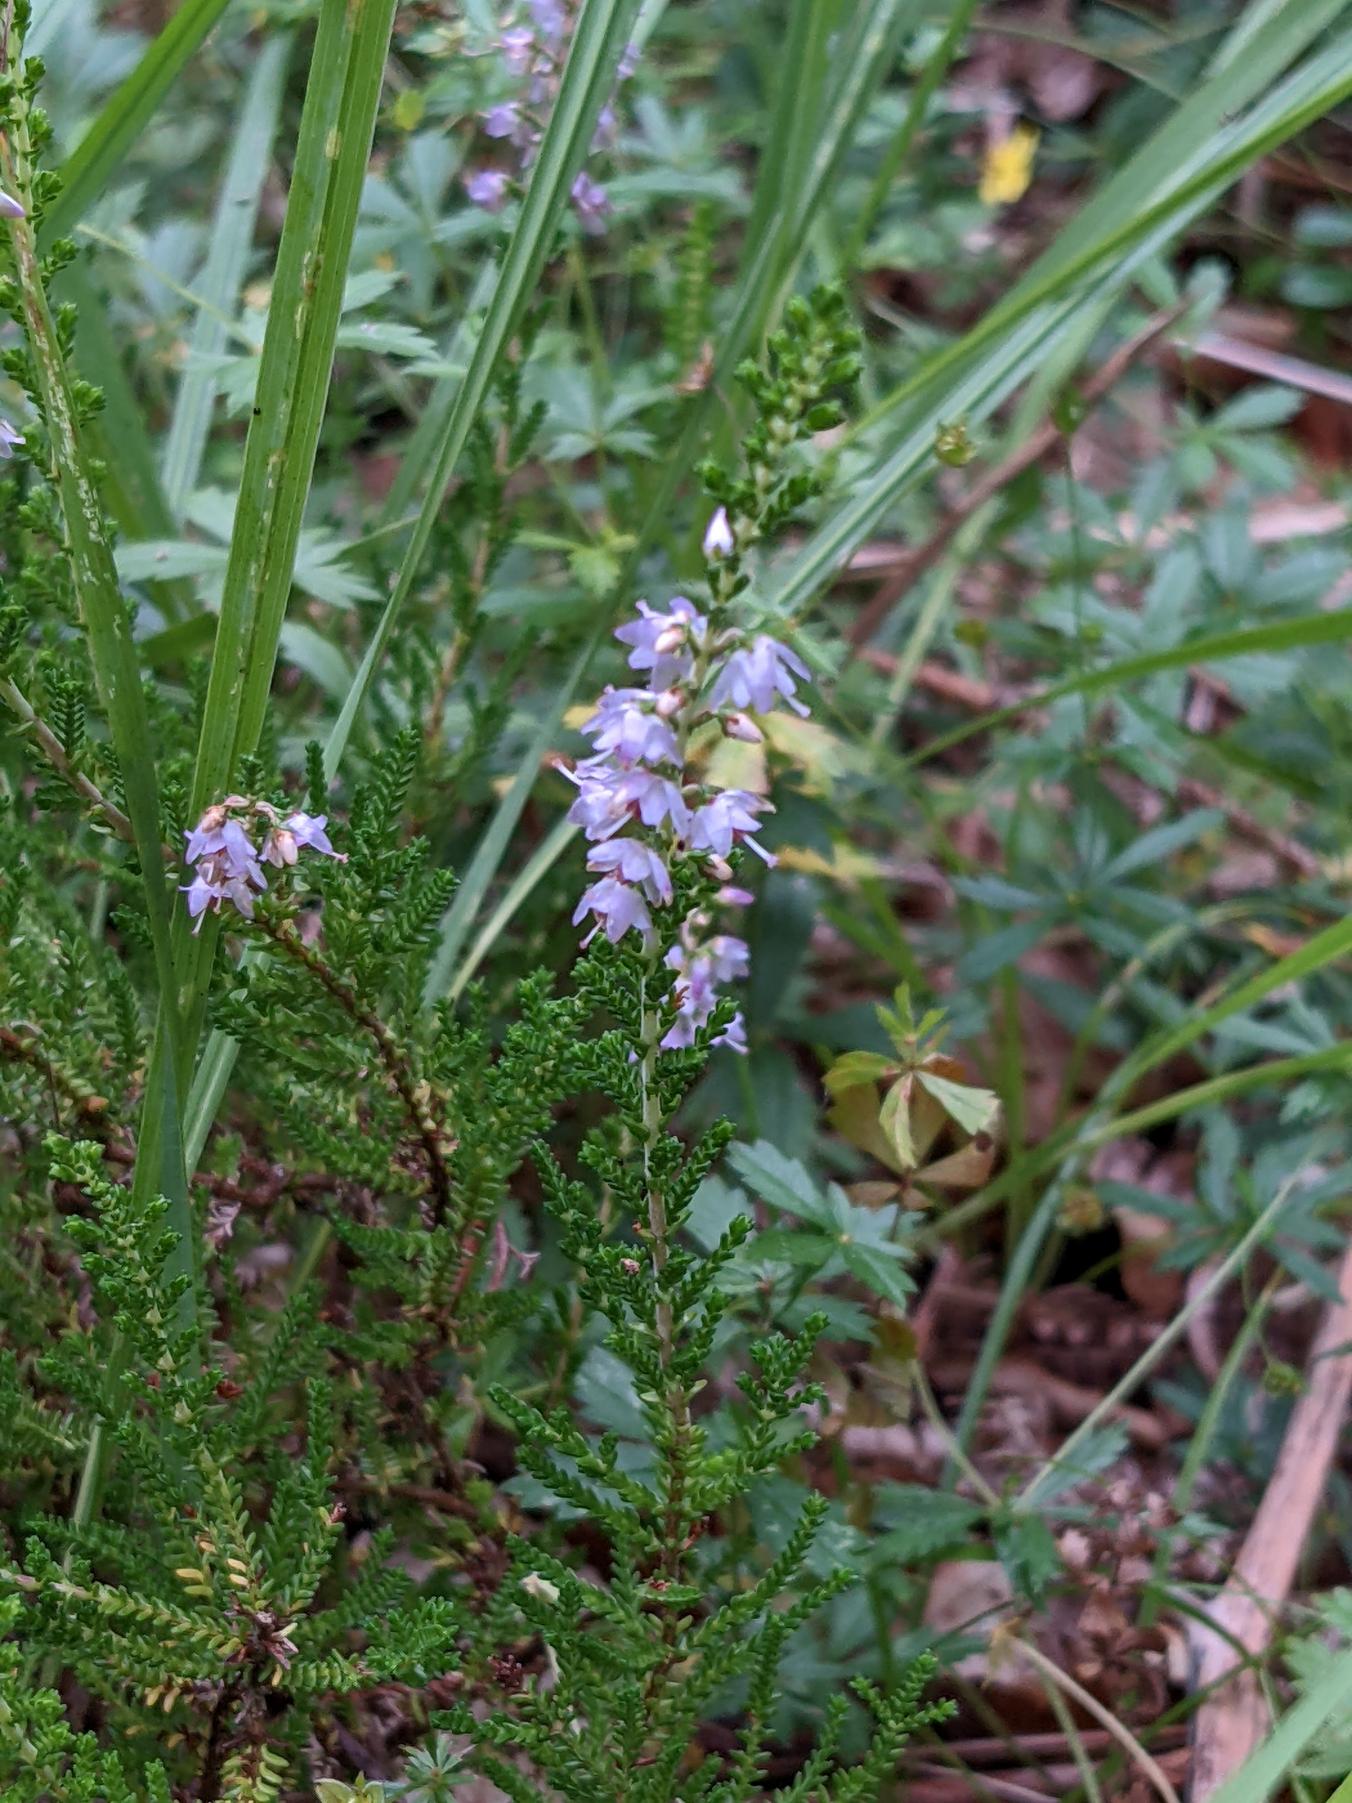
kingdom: Plantae
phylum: Tracheophyta
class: Magnoliopsida
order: Ericales
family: Ericaceae
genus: Calluna
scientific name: Calluna vulgaris
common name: Hedelyng
